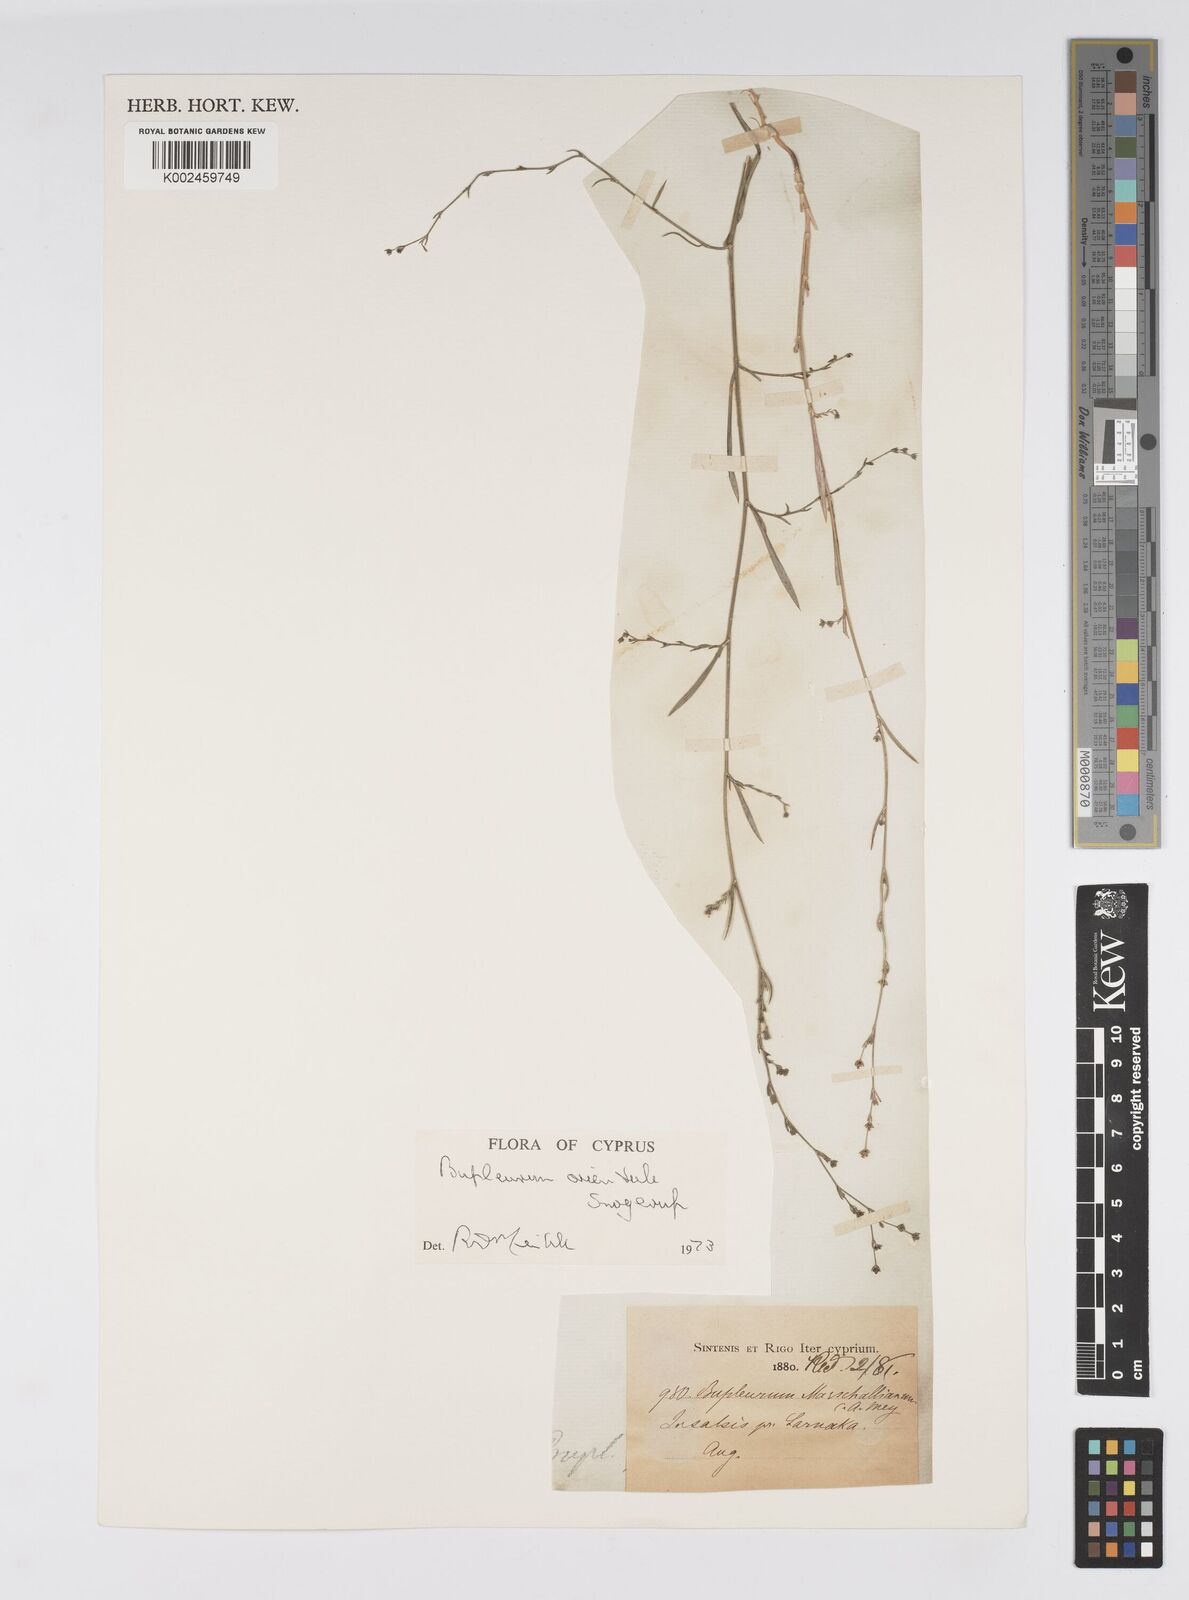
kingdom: Plantae
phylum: Tracheophyta
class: Magnoliopsida
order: Apiales
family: Apiaceae
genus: Bupleurum
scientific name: Bupleurum orientale
